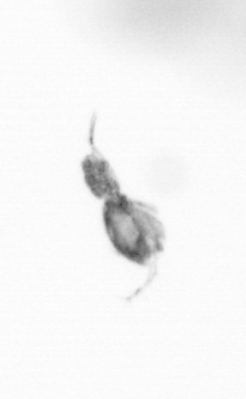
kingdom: Animalia
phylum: Arthropoda
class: Copepoda
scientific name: Copepoda
